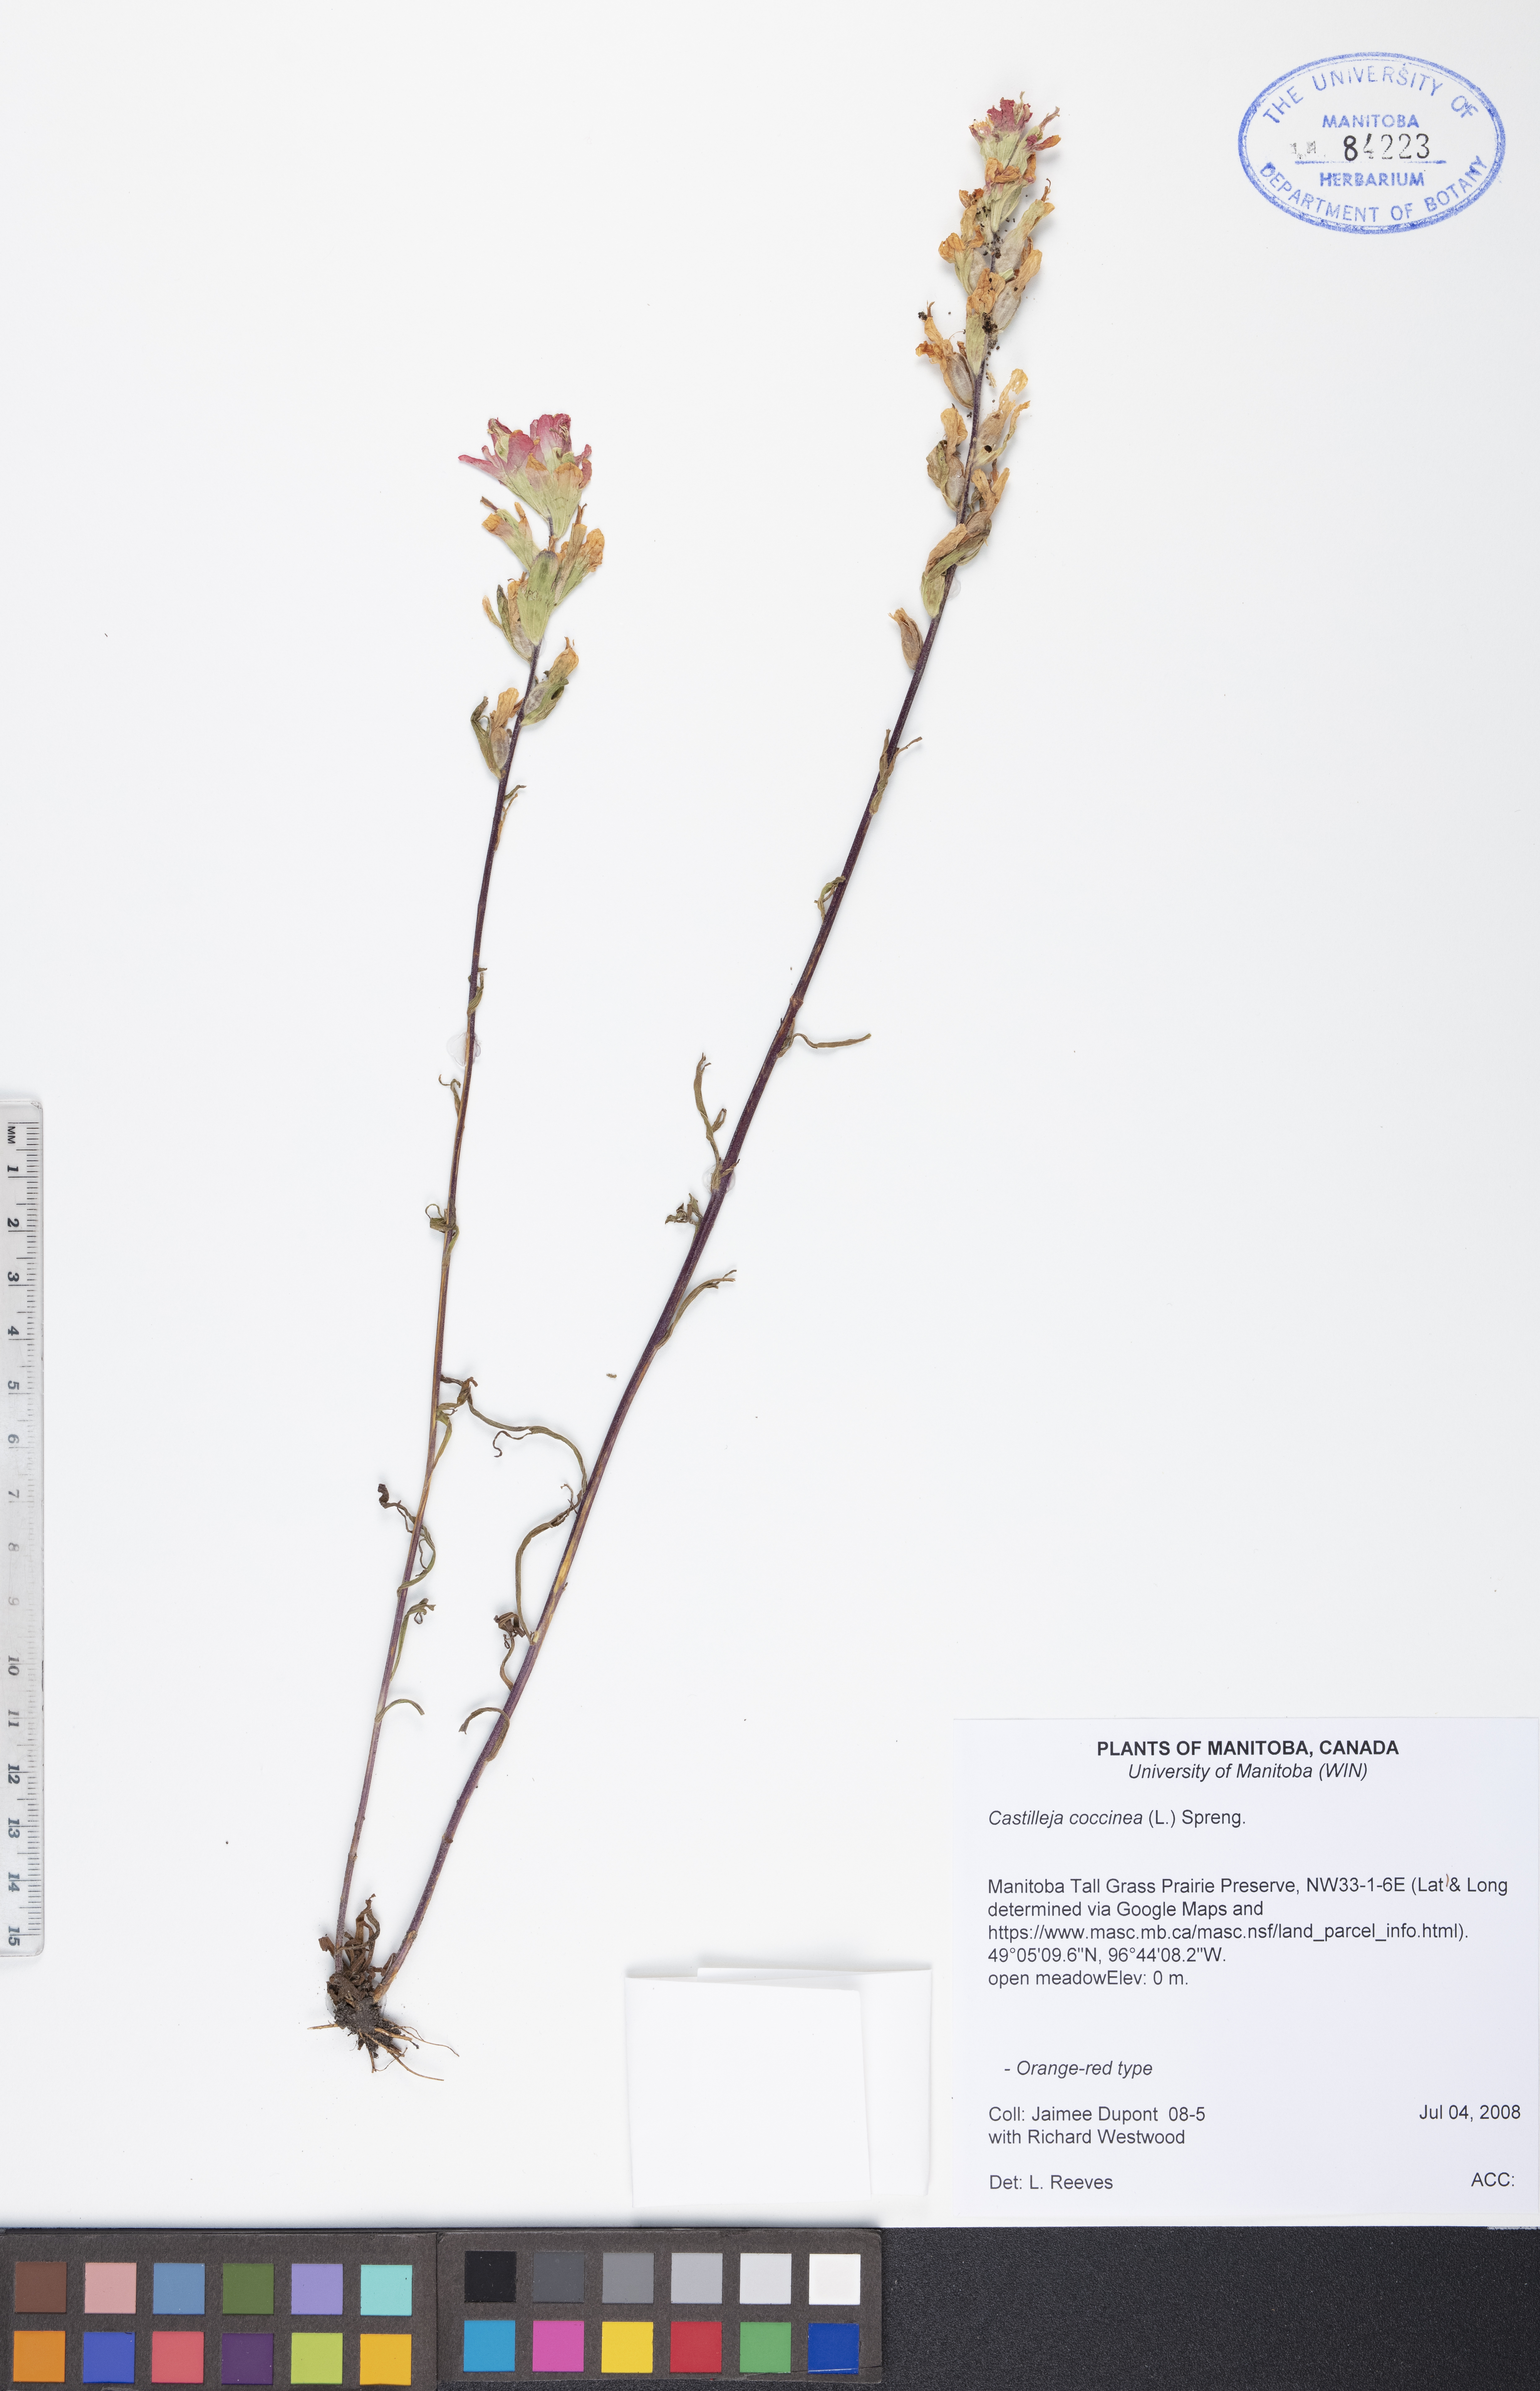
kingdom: Plantae
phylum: Tracheophyta
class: Magnoliopsida
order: Lamiales
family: Orobanchaceae
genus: Castilleja
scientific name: Castilleja coccinea
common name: Scarlet paintbrush
